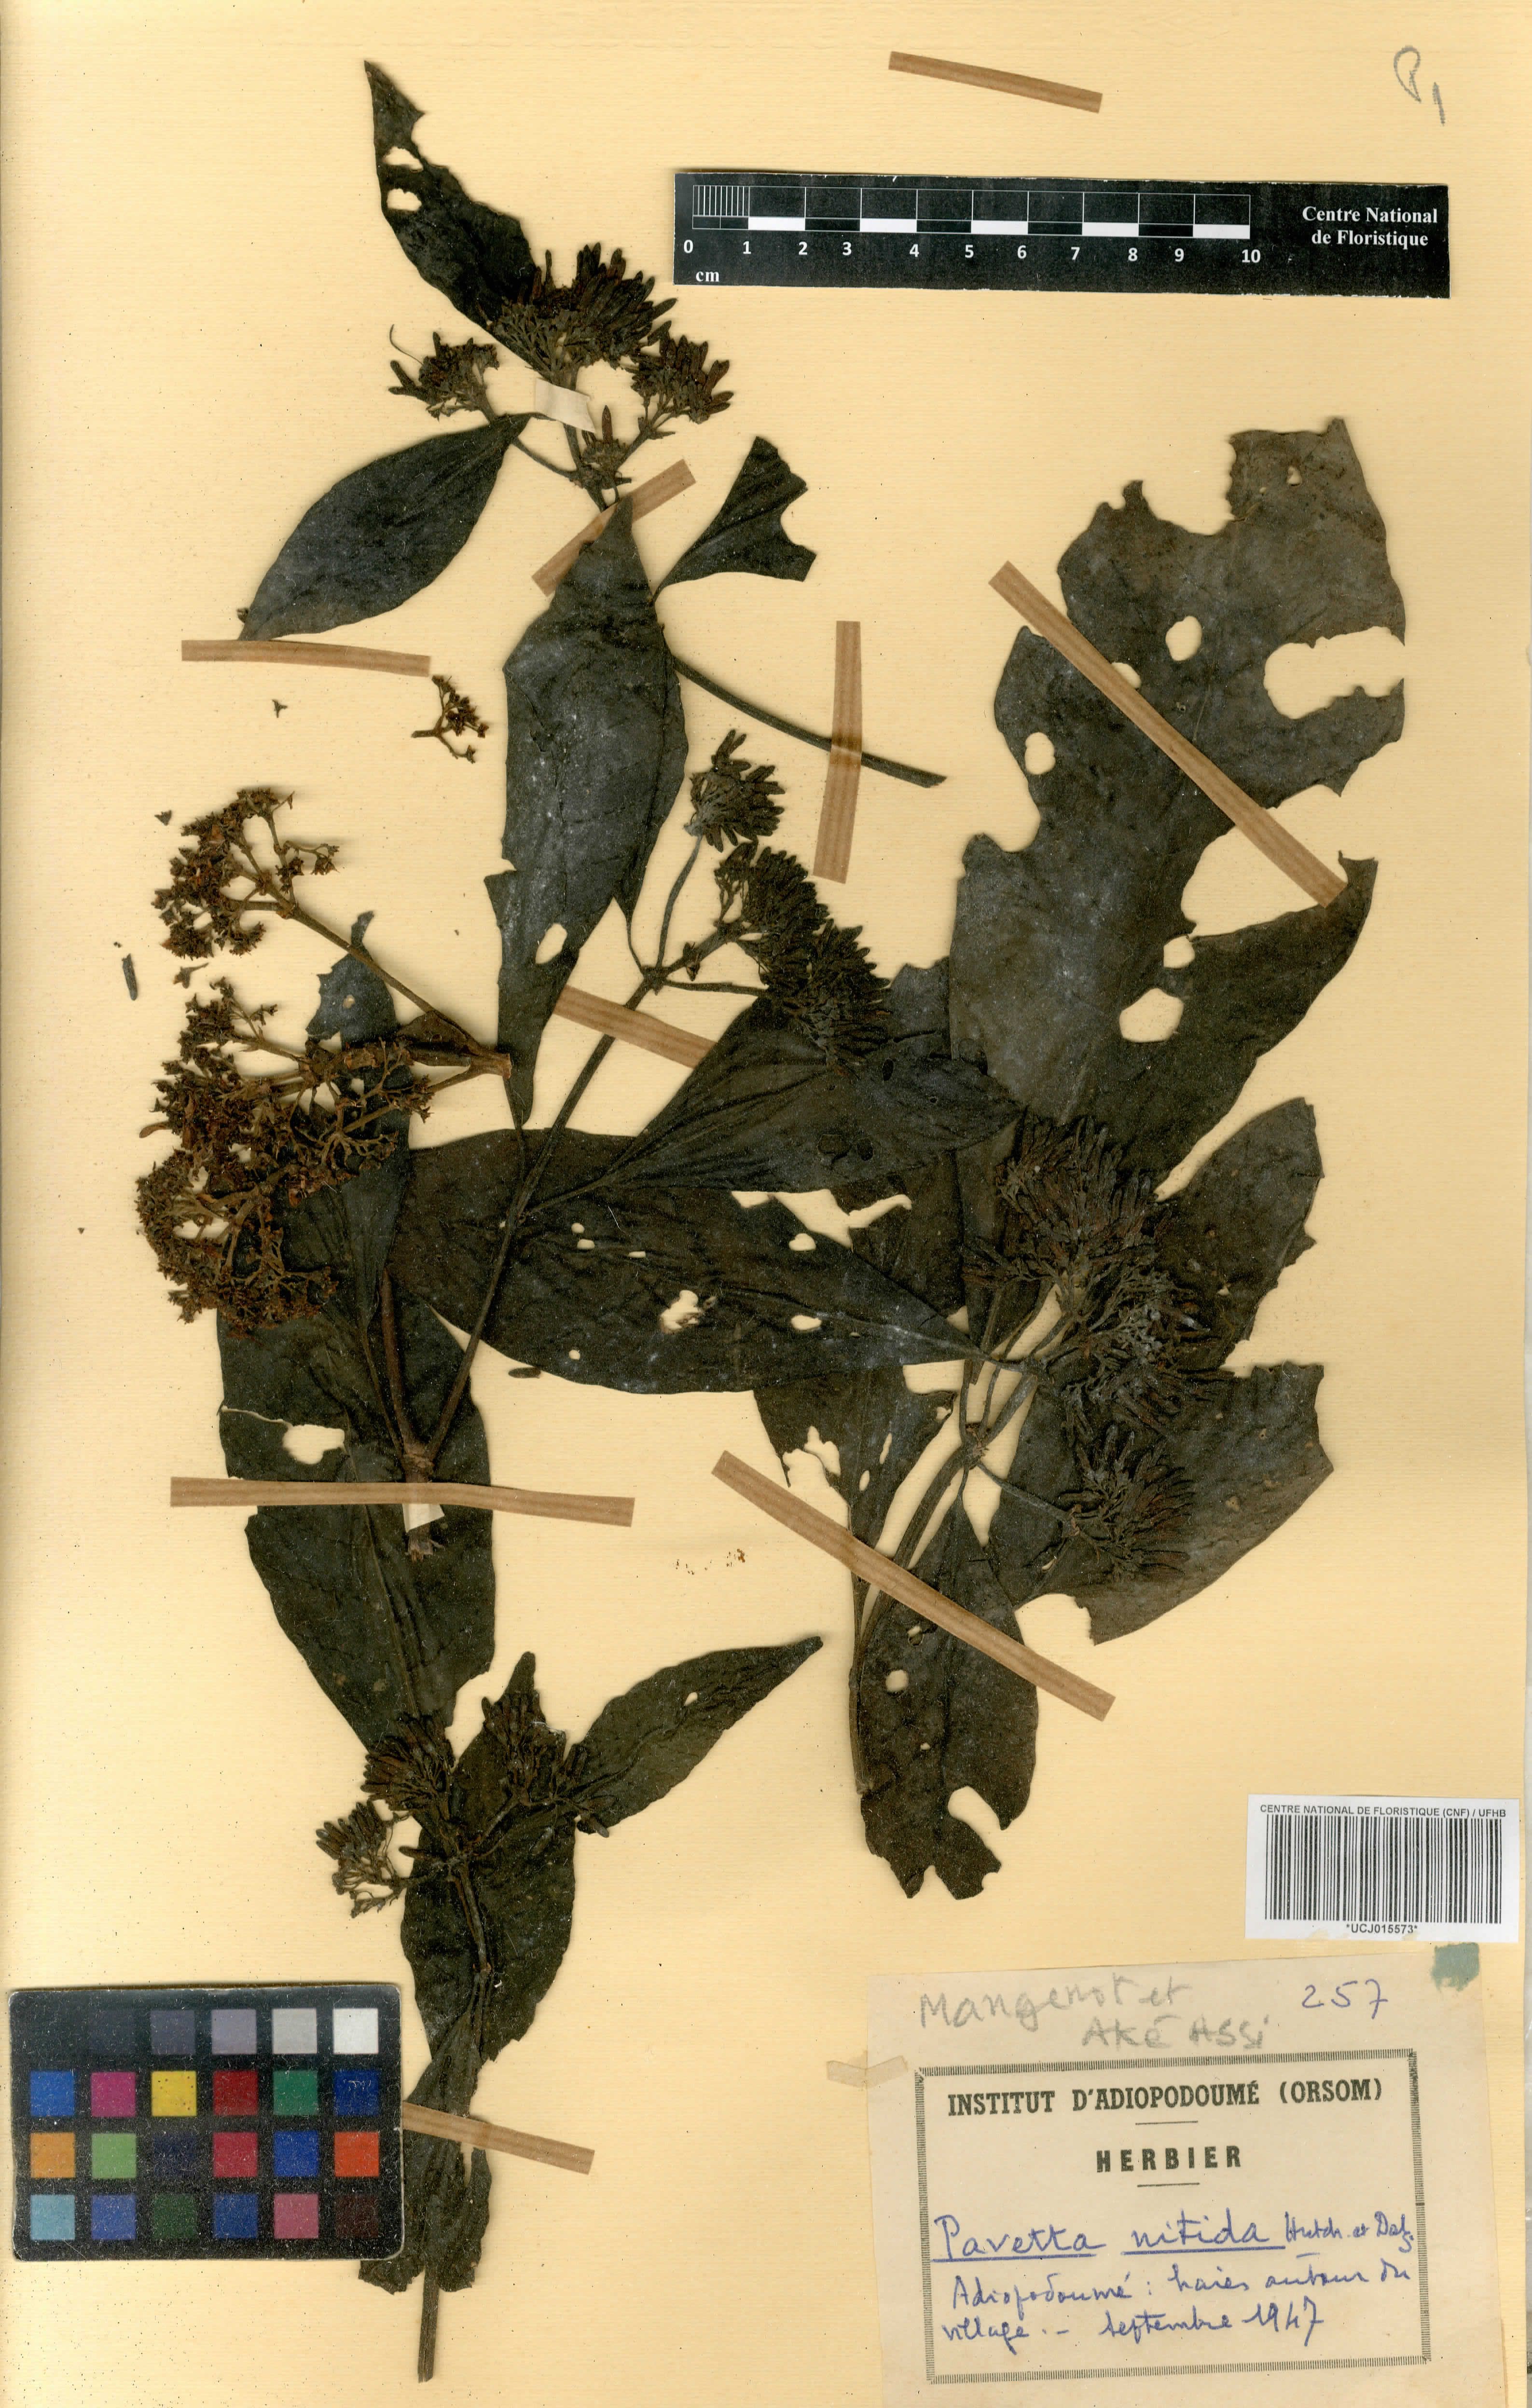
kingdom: Plantae
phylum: Tracheophyta
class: Magnoliopsida
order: Gentianales
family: Rubiaceae
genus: Pavetta
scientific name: Pavetta corymbosa
